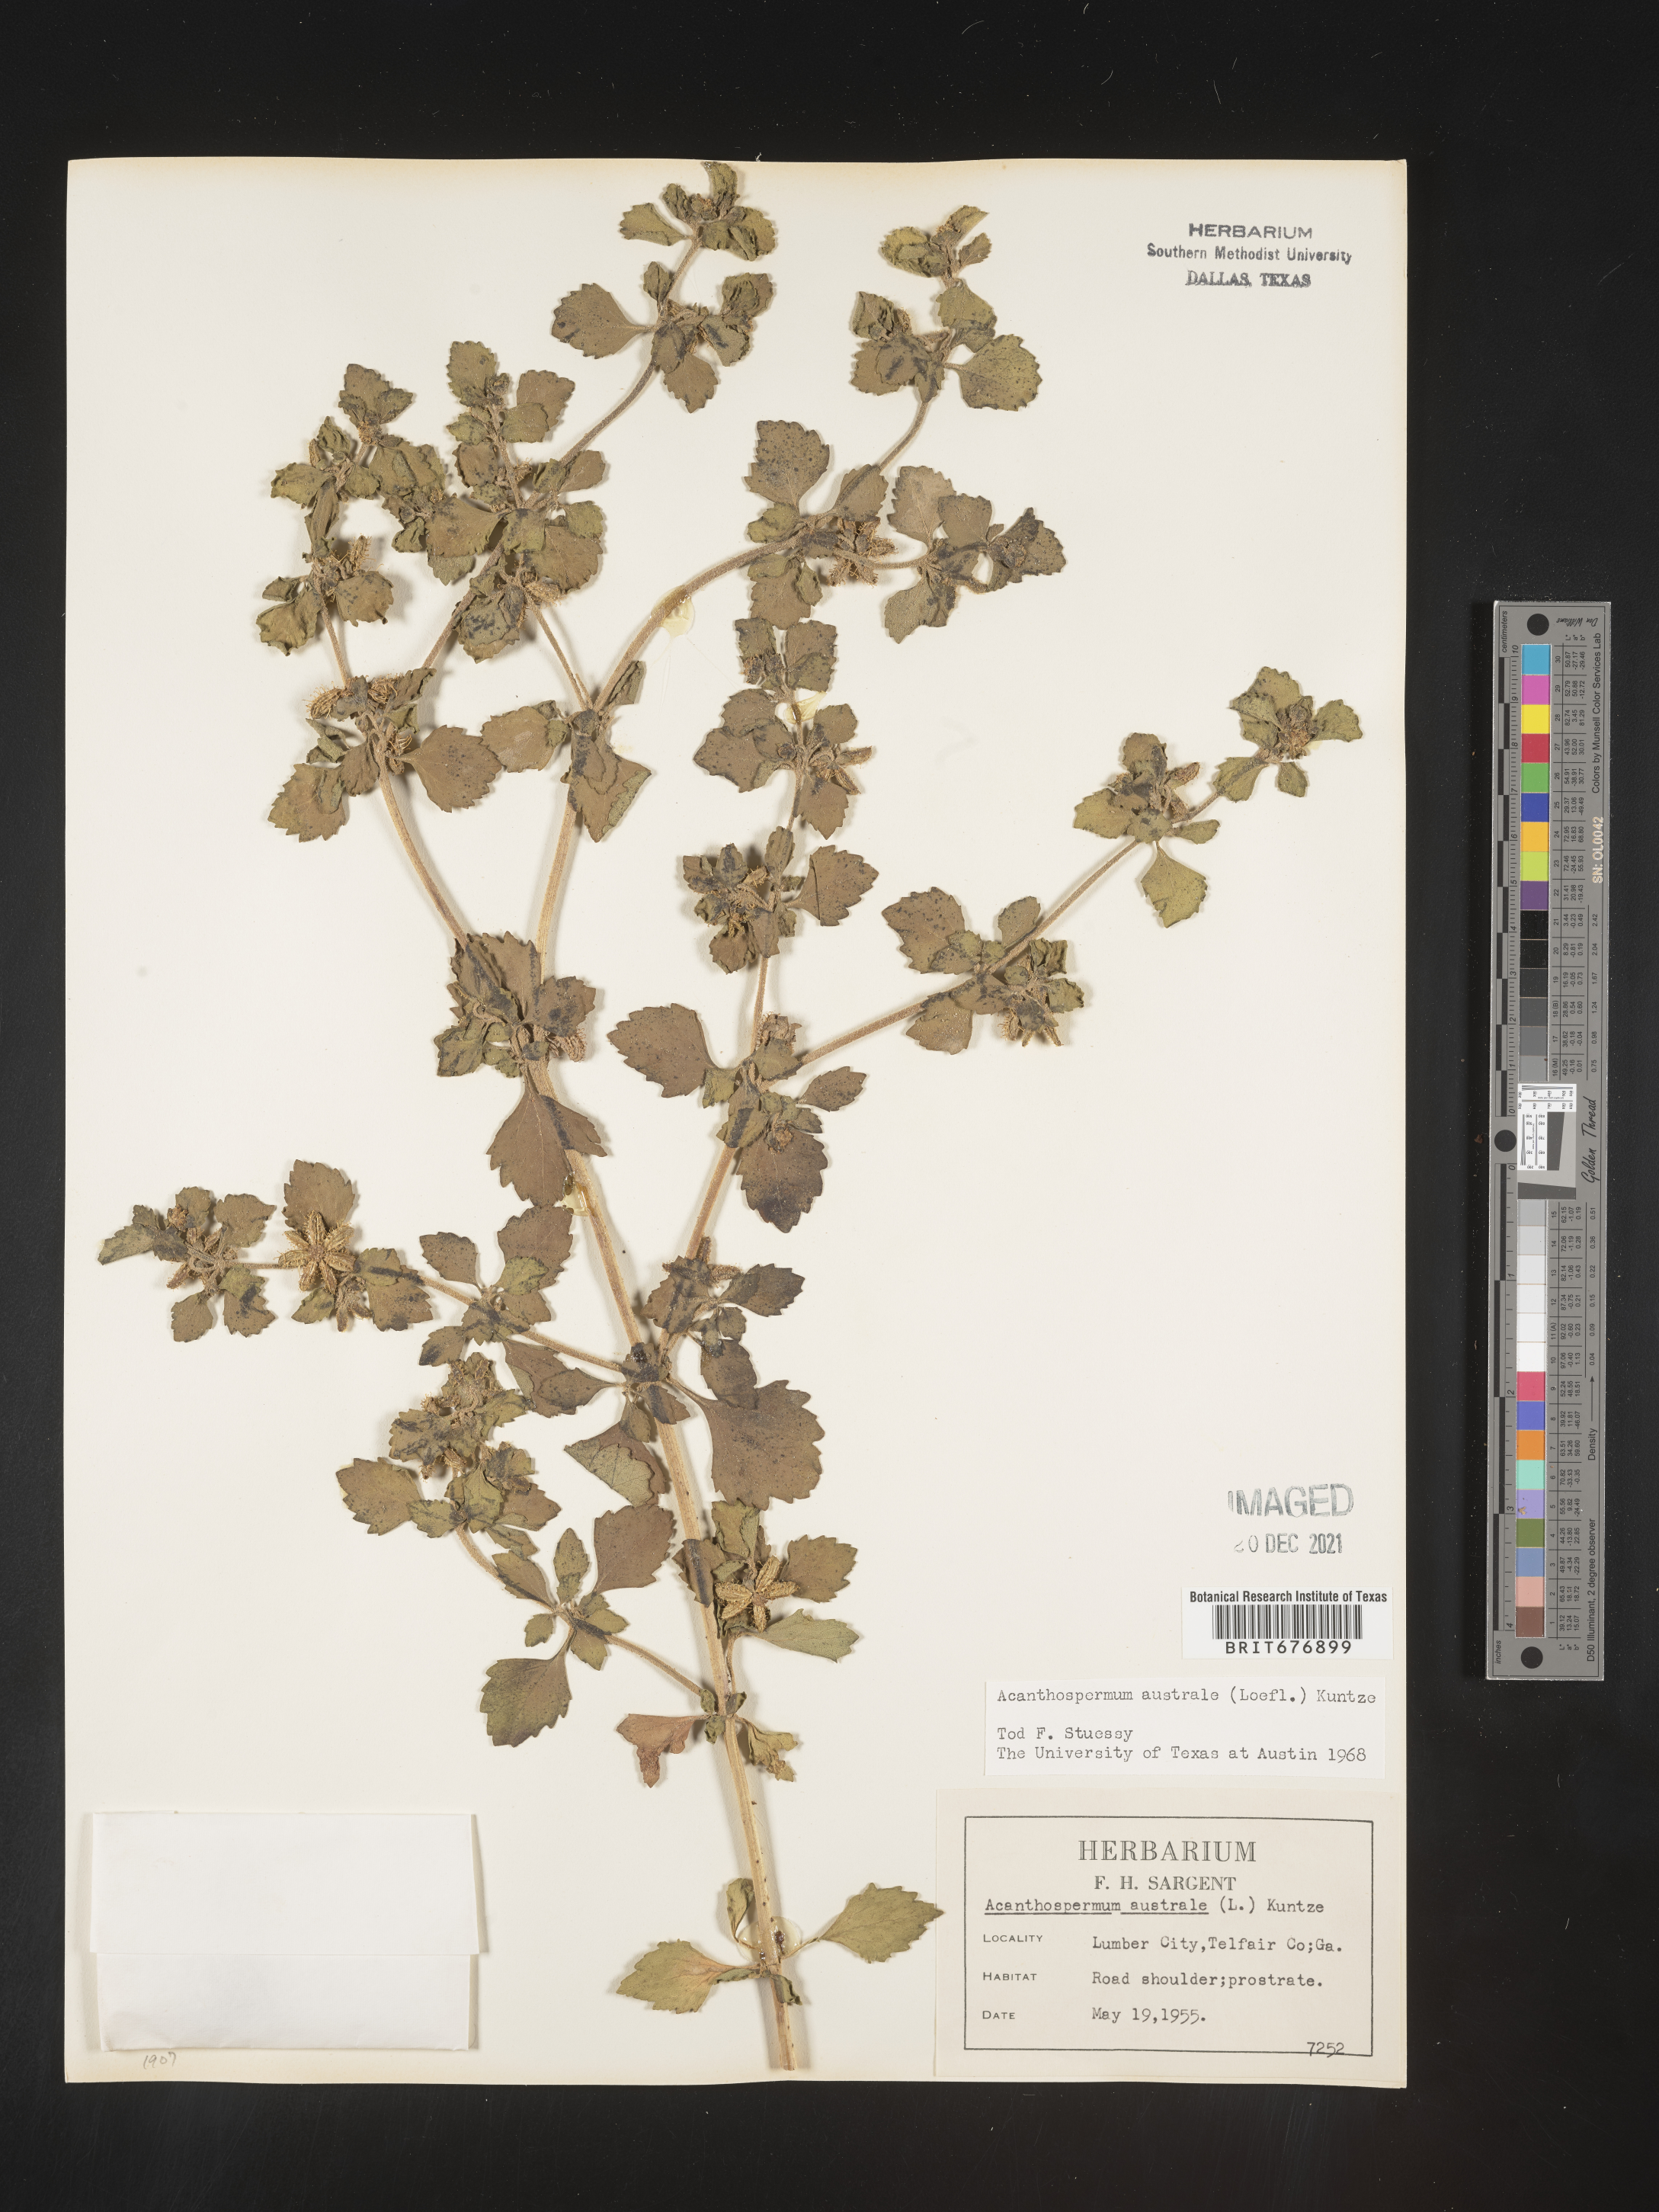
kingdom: Plantae
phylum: Tracheophyta
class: Magnoliopsida
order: Asterales
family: Asteraceae
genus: Acanthospermum
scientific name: Acanthospermum australe
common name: Paraguayan starbur
